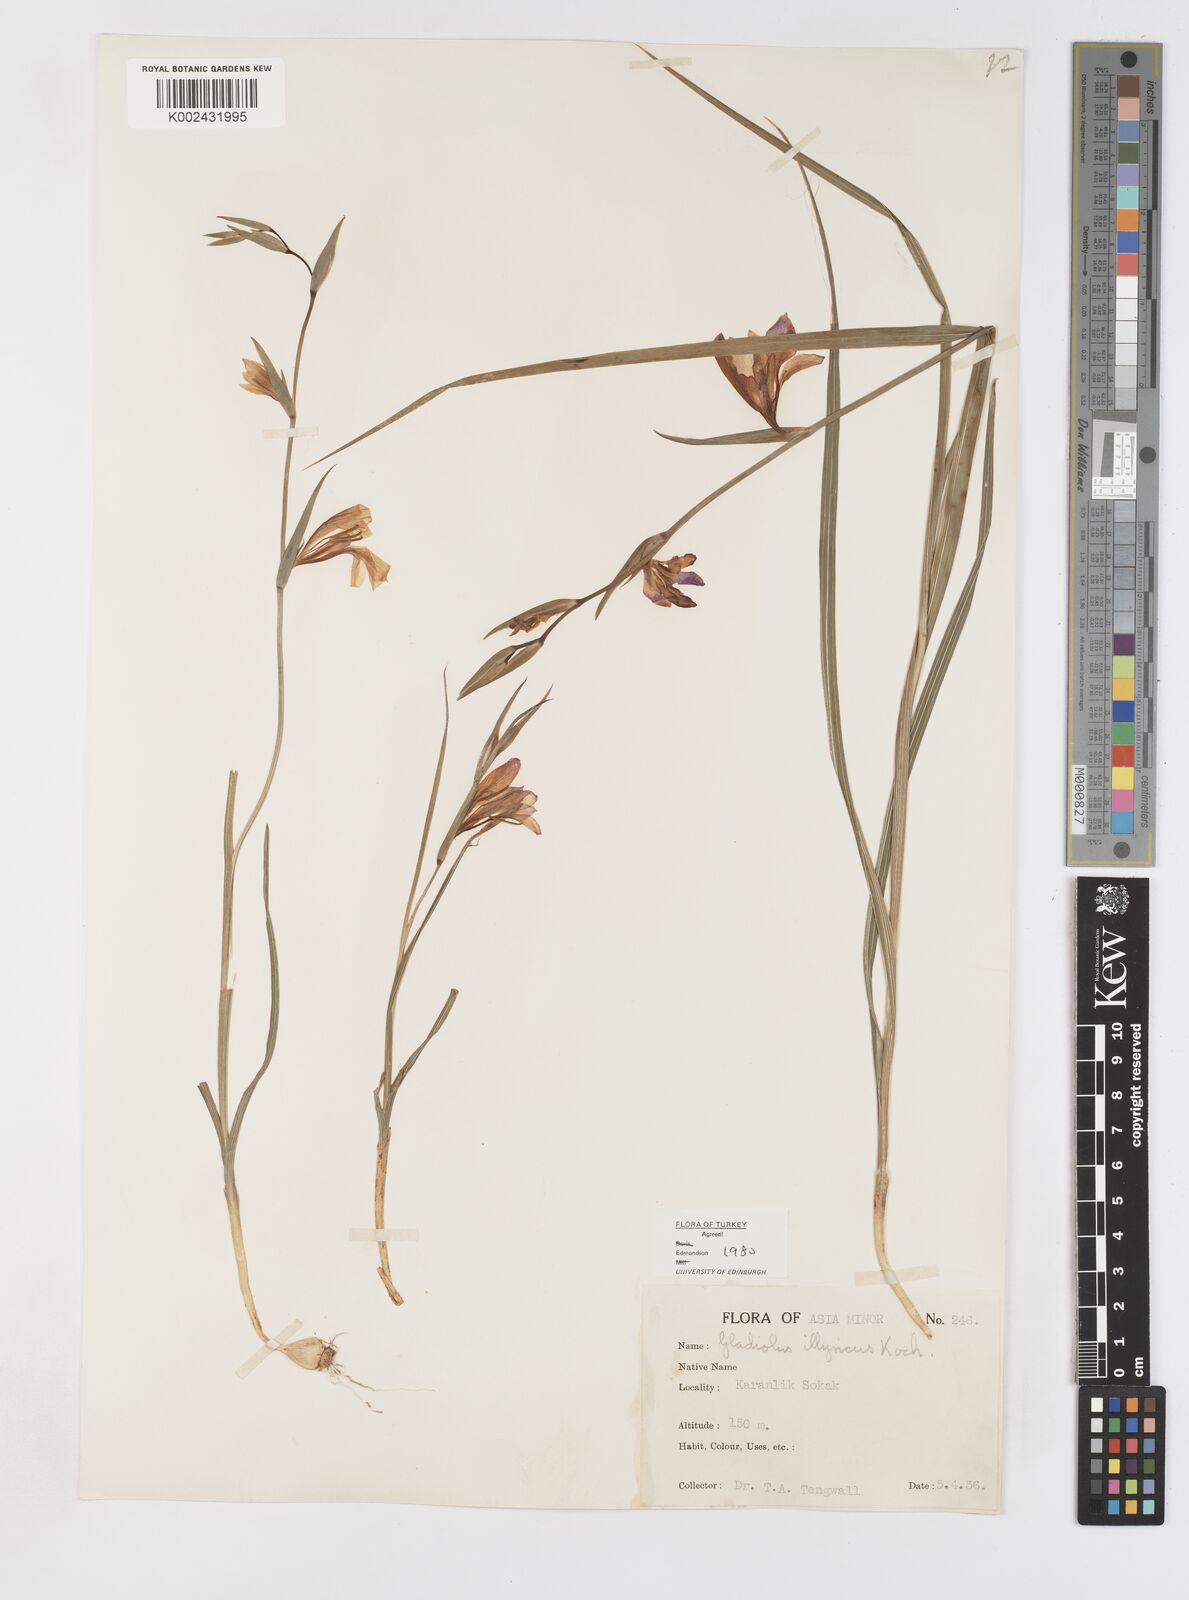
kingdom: Plantae
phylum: Tracheophyta
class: Liliopsida
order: Asparagales
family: Iridaceae
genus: Gladiolus
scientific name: Gladiolus illyricus
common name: Wild gladiolus
